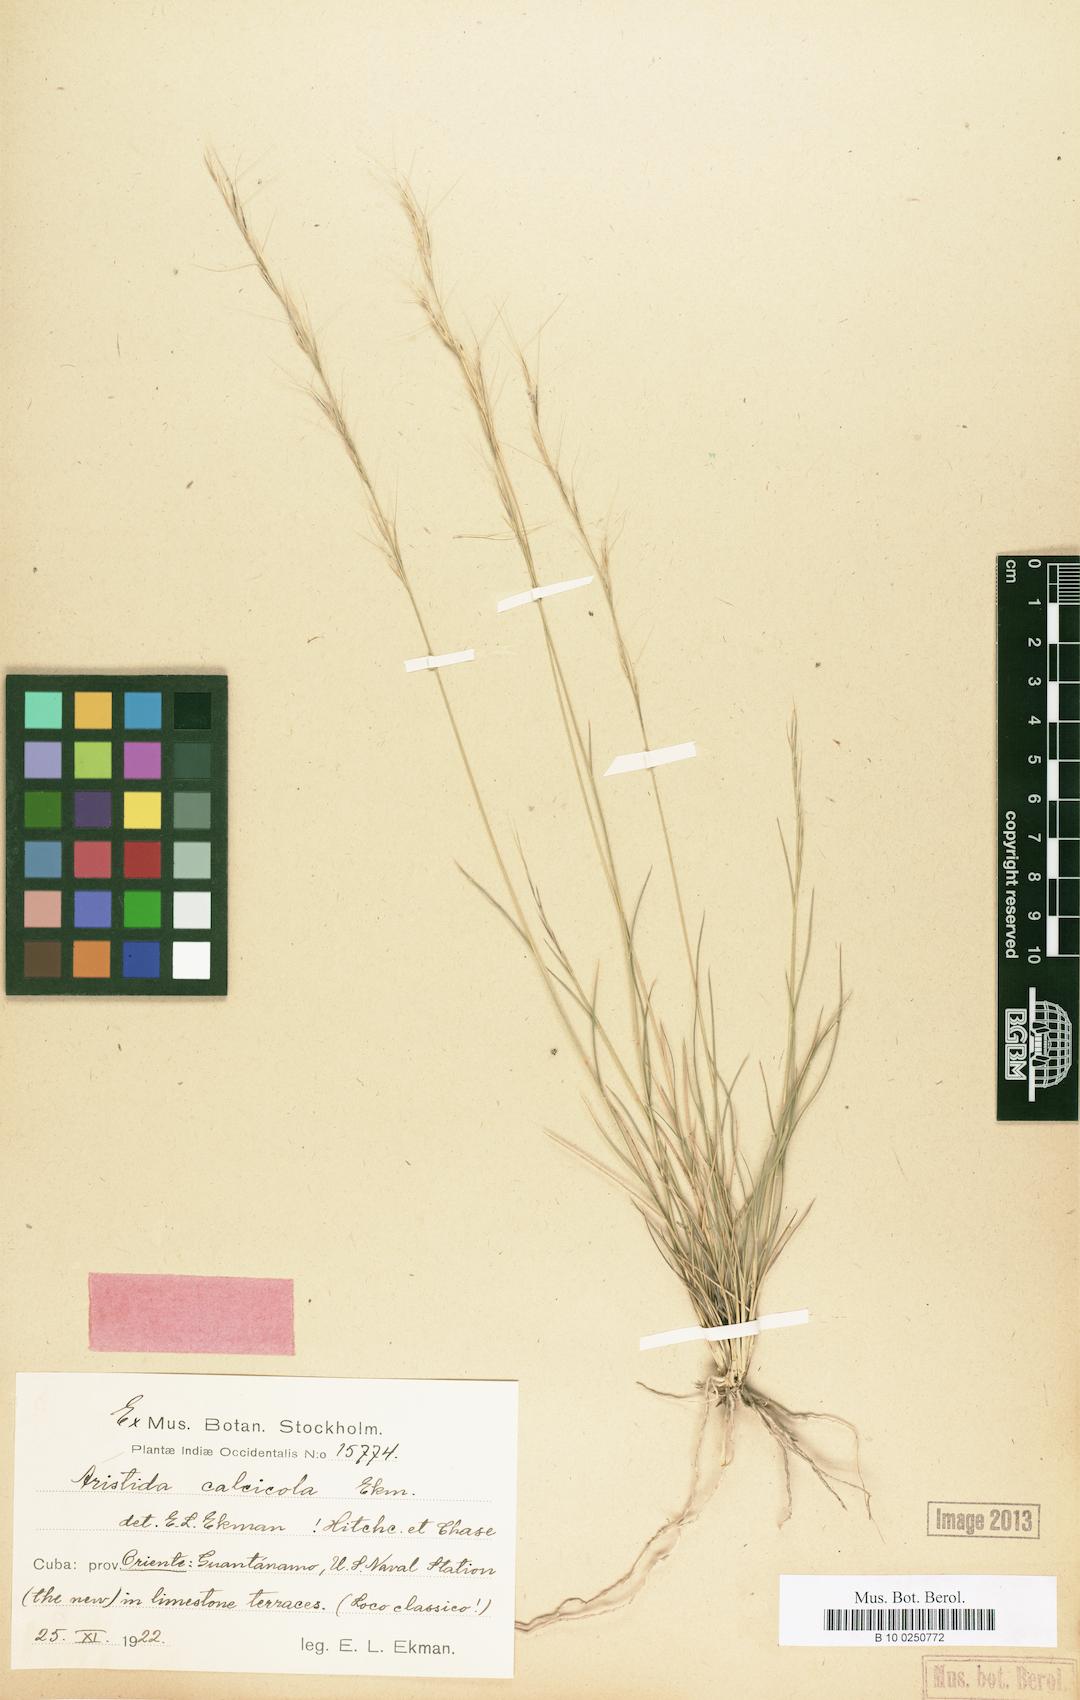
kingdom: Plantae
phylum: Tracheophyta
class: Liliopsida
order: Poales
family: Poaceae
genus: Aristida
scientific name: Aristida calcicola
